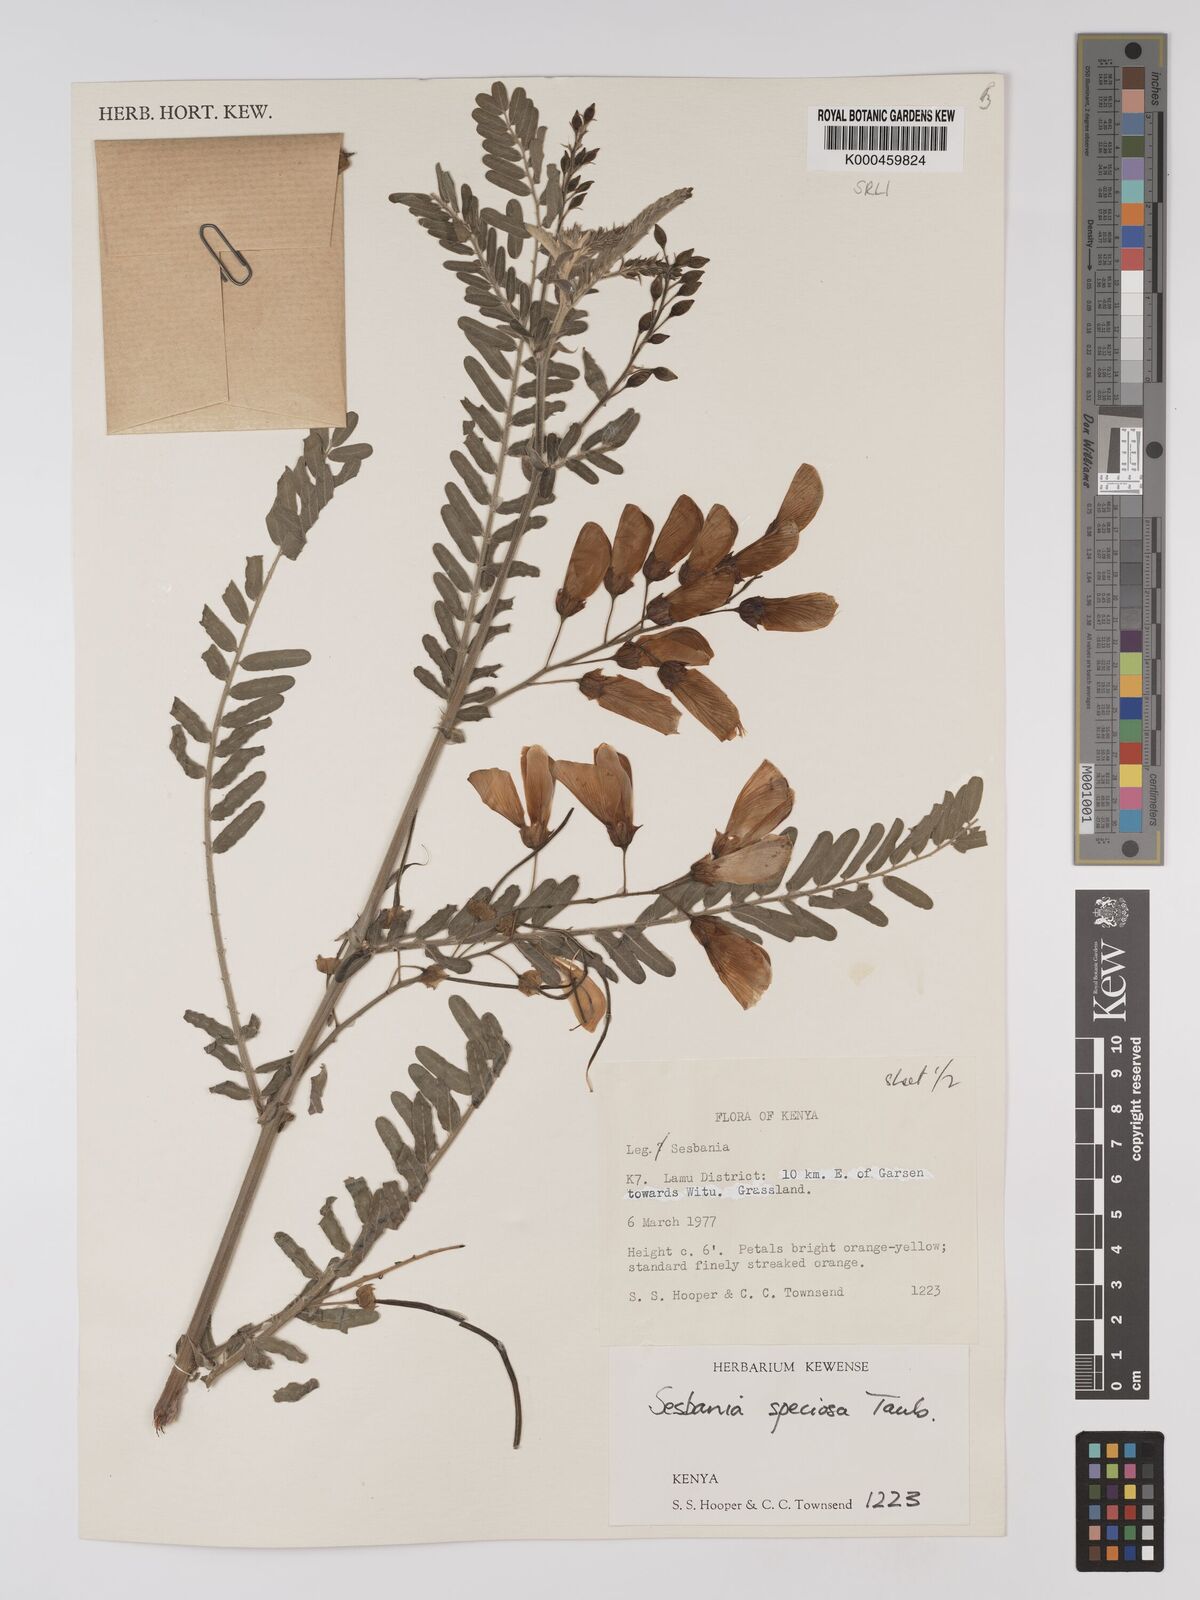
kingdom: Plantae
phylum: Tracheophyta
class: Magnoliopsida
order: Fabales
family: Fabaceae
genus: Sesbania
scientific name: Sesbania
